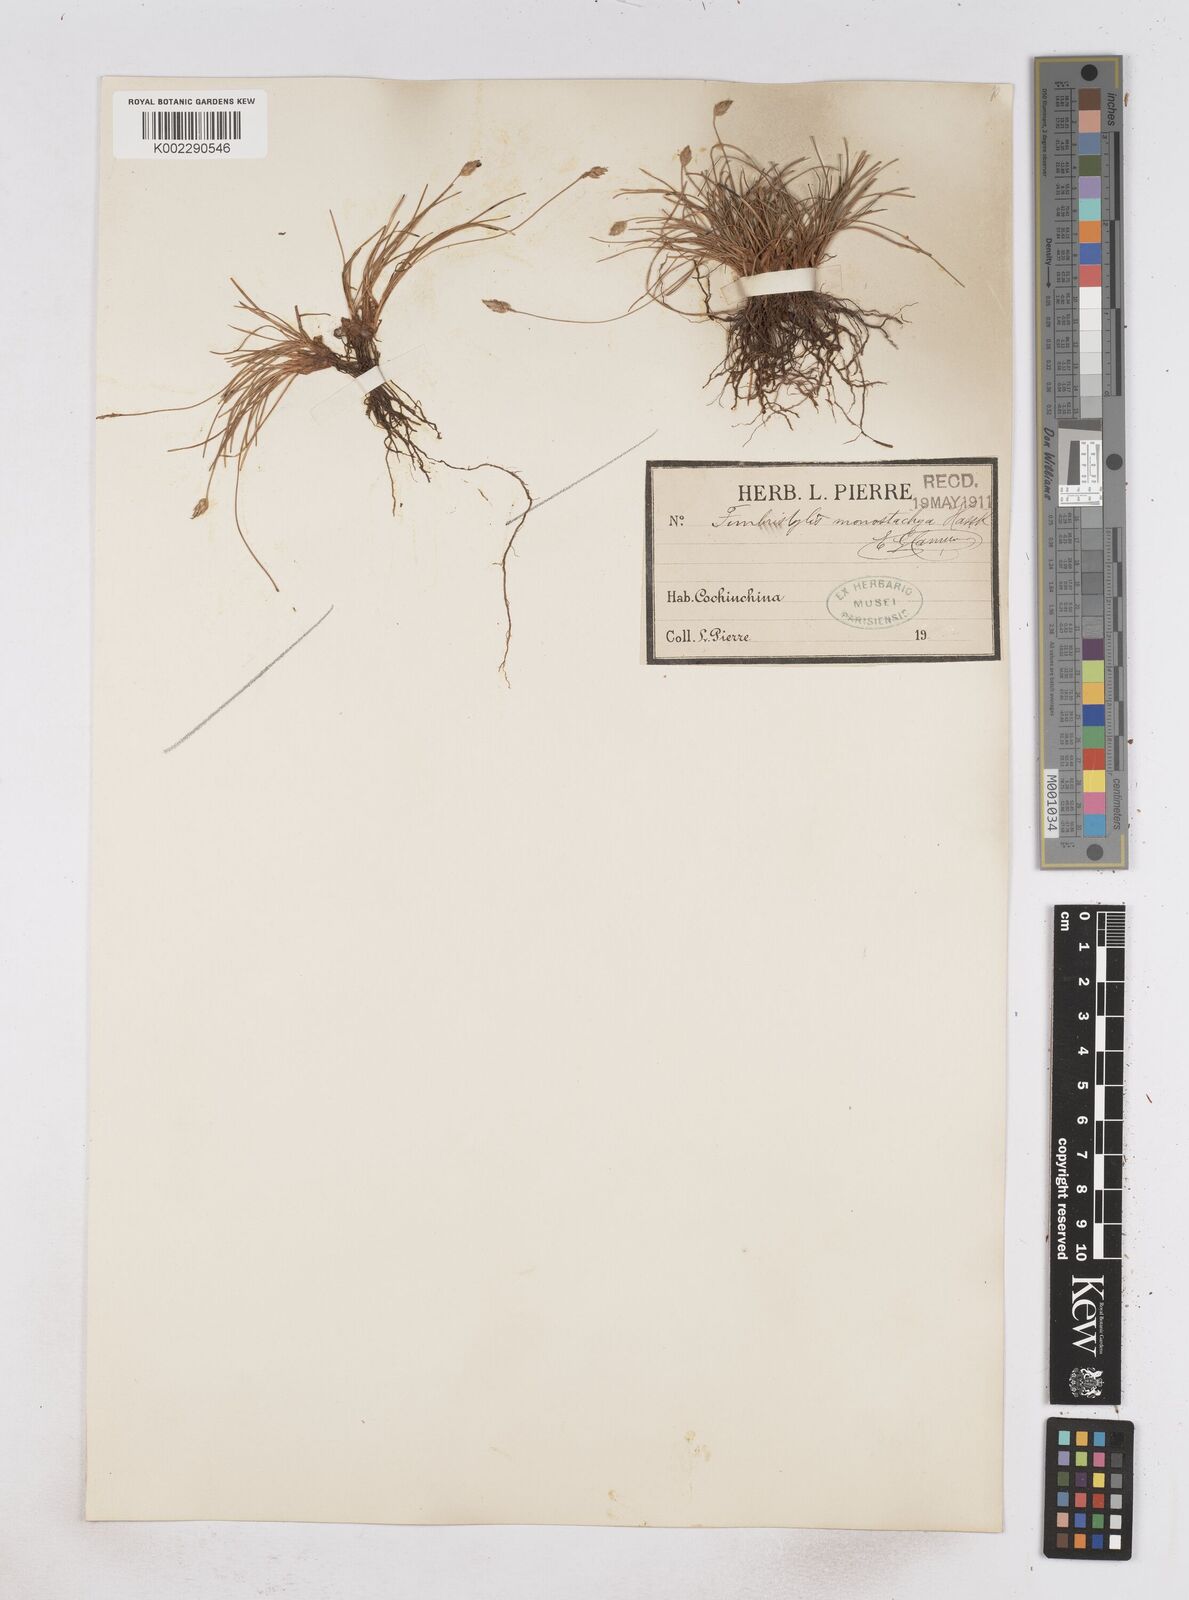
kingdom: Plantae
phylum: Tracheophyta
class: Liliopsida
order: Poales
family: Cyperaceae
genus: Abildgaardia
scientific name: Abildgaardia ovata
